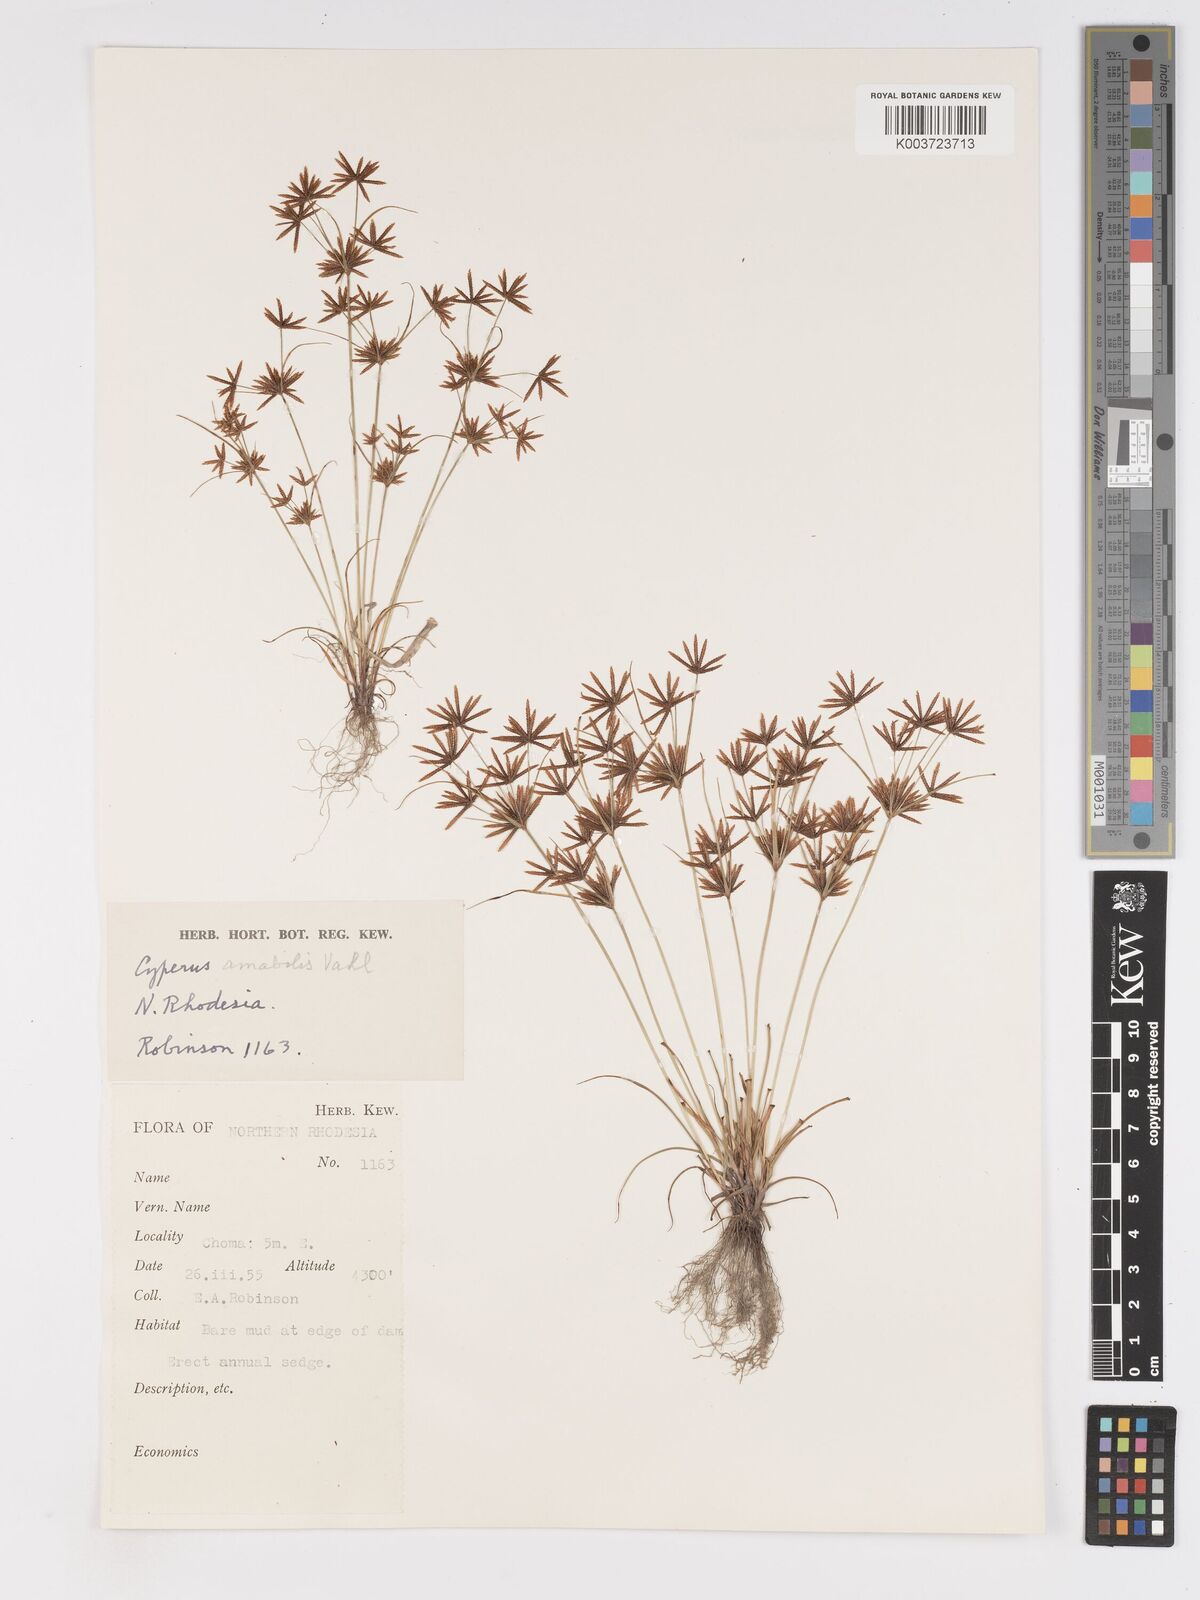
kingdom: Plantae
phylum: Tracheophyta
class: Liliopsida
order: Poales
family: Cyperaceae
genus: Cyperus
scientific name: Cyperus amabilis
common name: Foothill flat sedge
